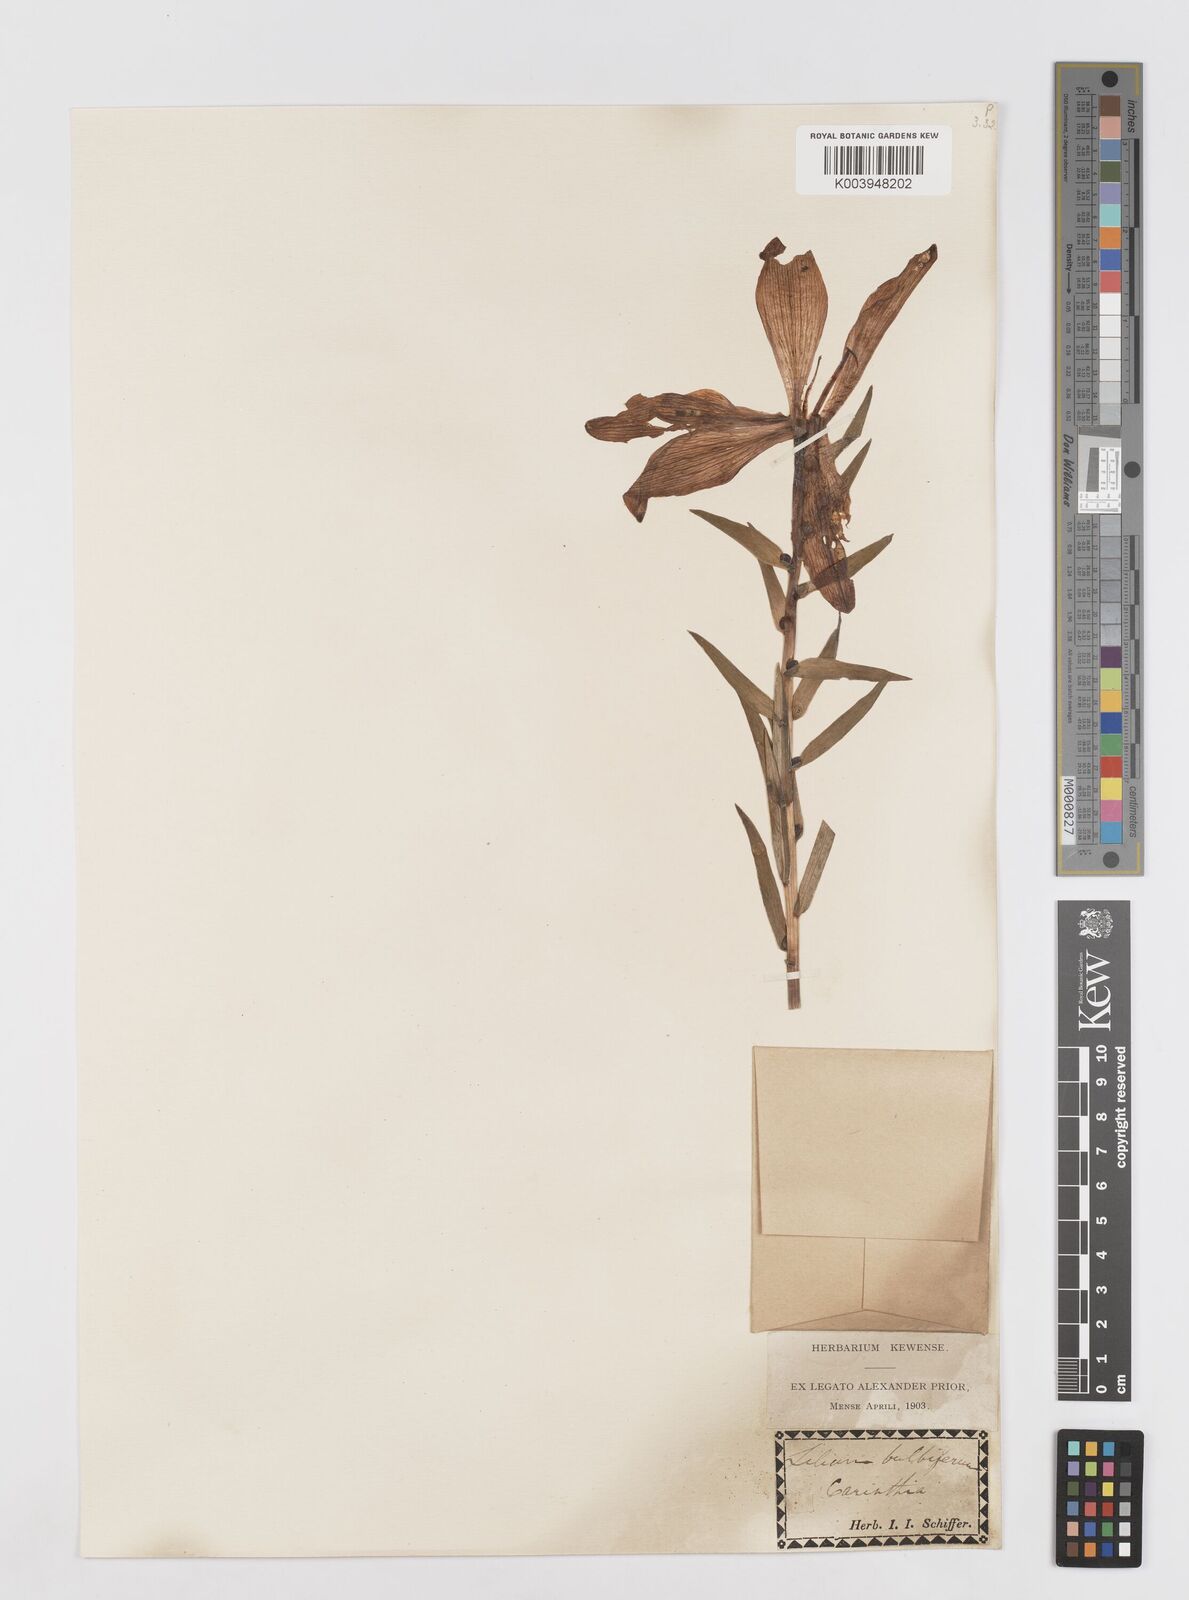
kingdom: Plantae
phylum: Tracheophyta
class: Liliopsida
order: Liliales
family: Liliaceae
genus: Lilium
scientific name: Lilium bulbiferum
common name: Orange lily
